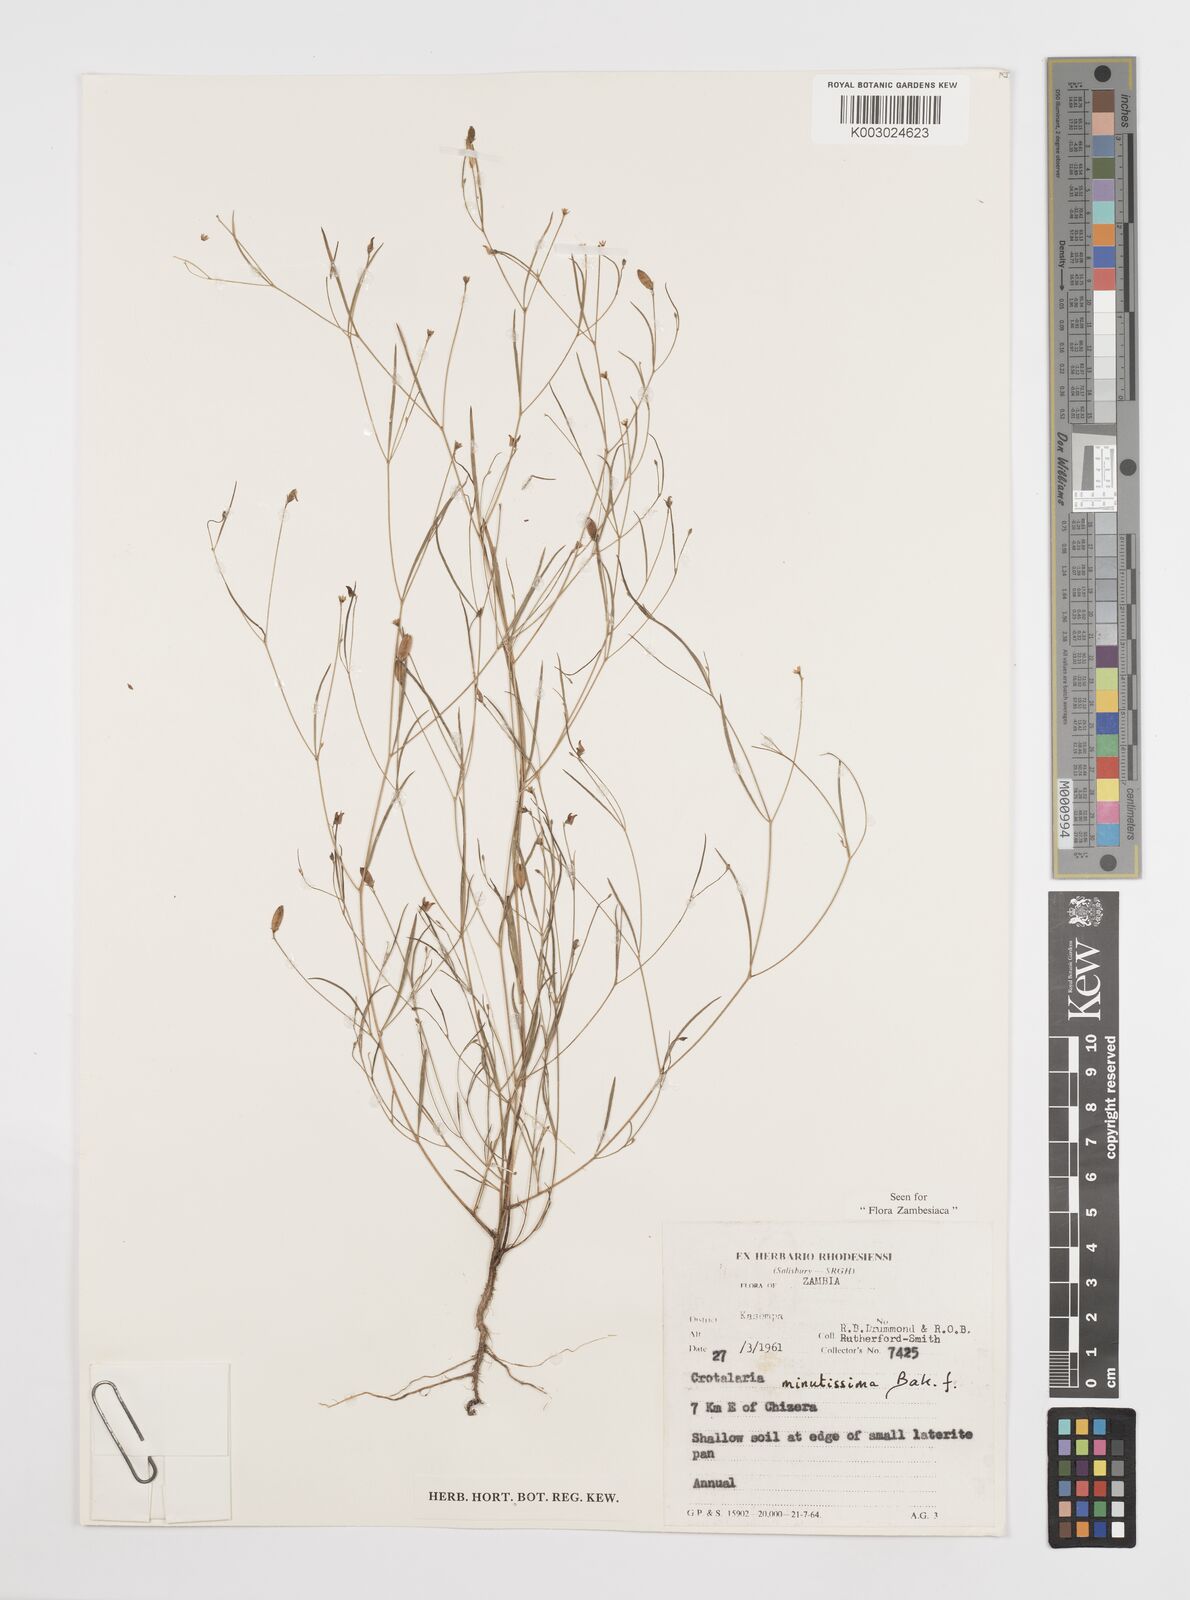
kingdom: Plantae
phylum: Tracheophyta
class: Magnoliopsida
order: Fabales
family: Fabaceae
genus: Crotalaria
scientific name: Crotalaria minutissima
